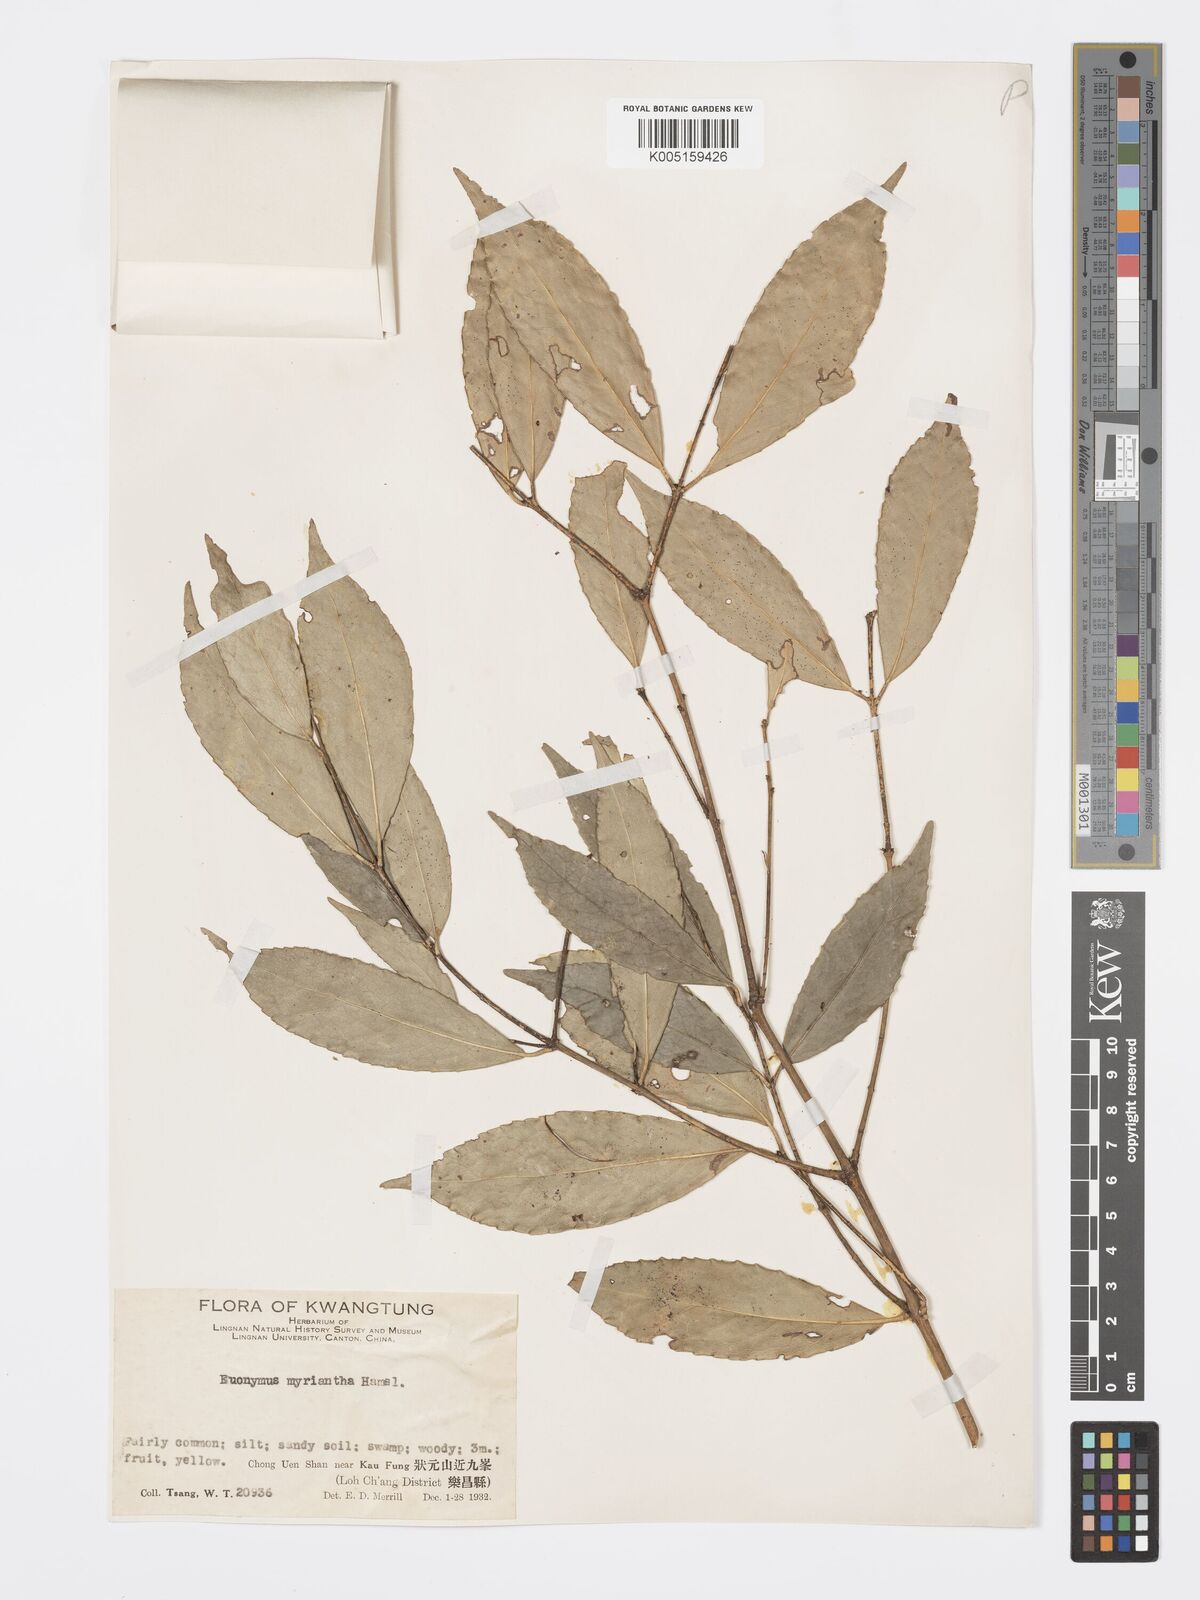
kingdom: Plantae
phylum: Tracheophyta
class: Magnoliopsida
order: Celastrales
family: Celastraceae
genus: Euonymus
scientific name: Euonymus myrianthus
